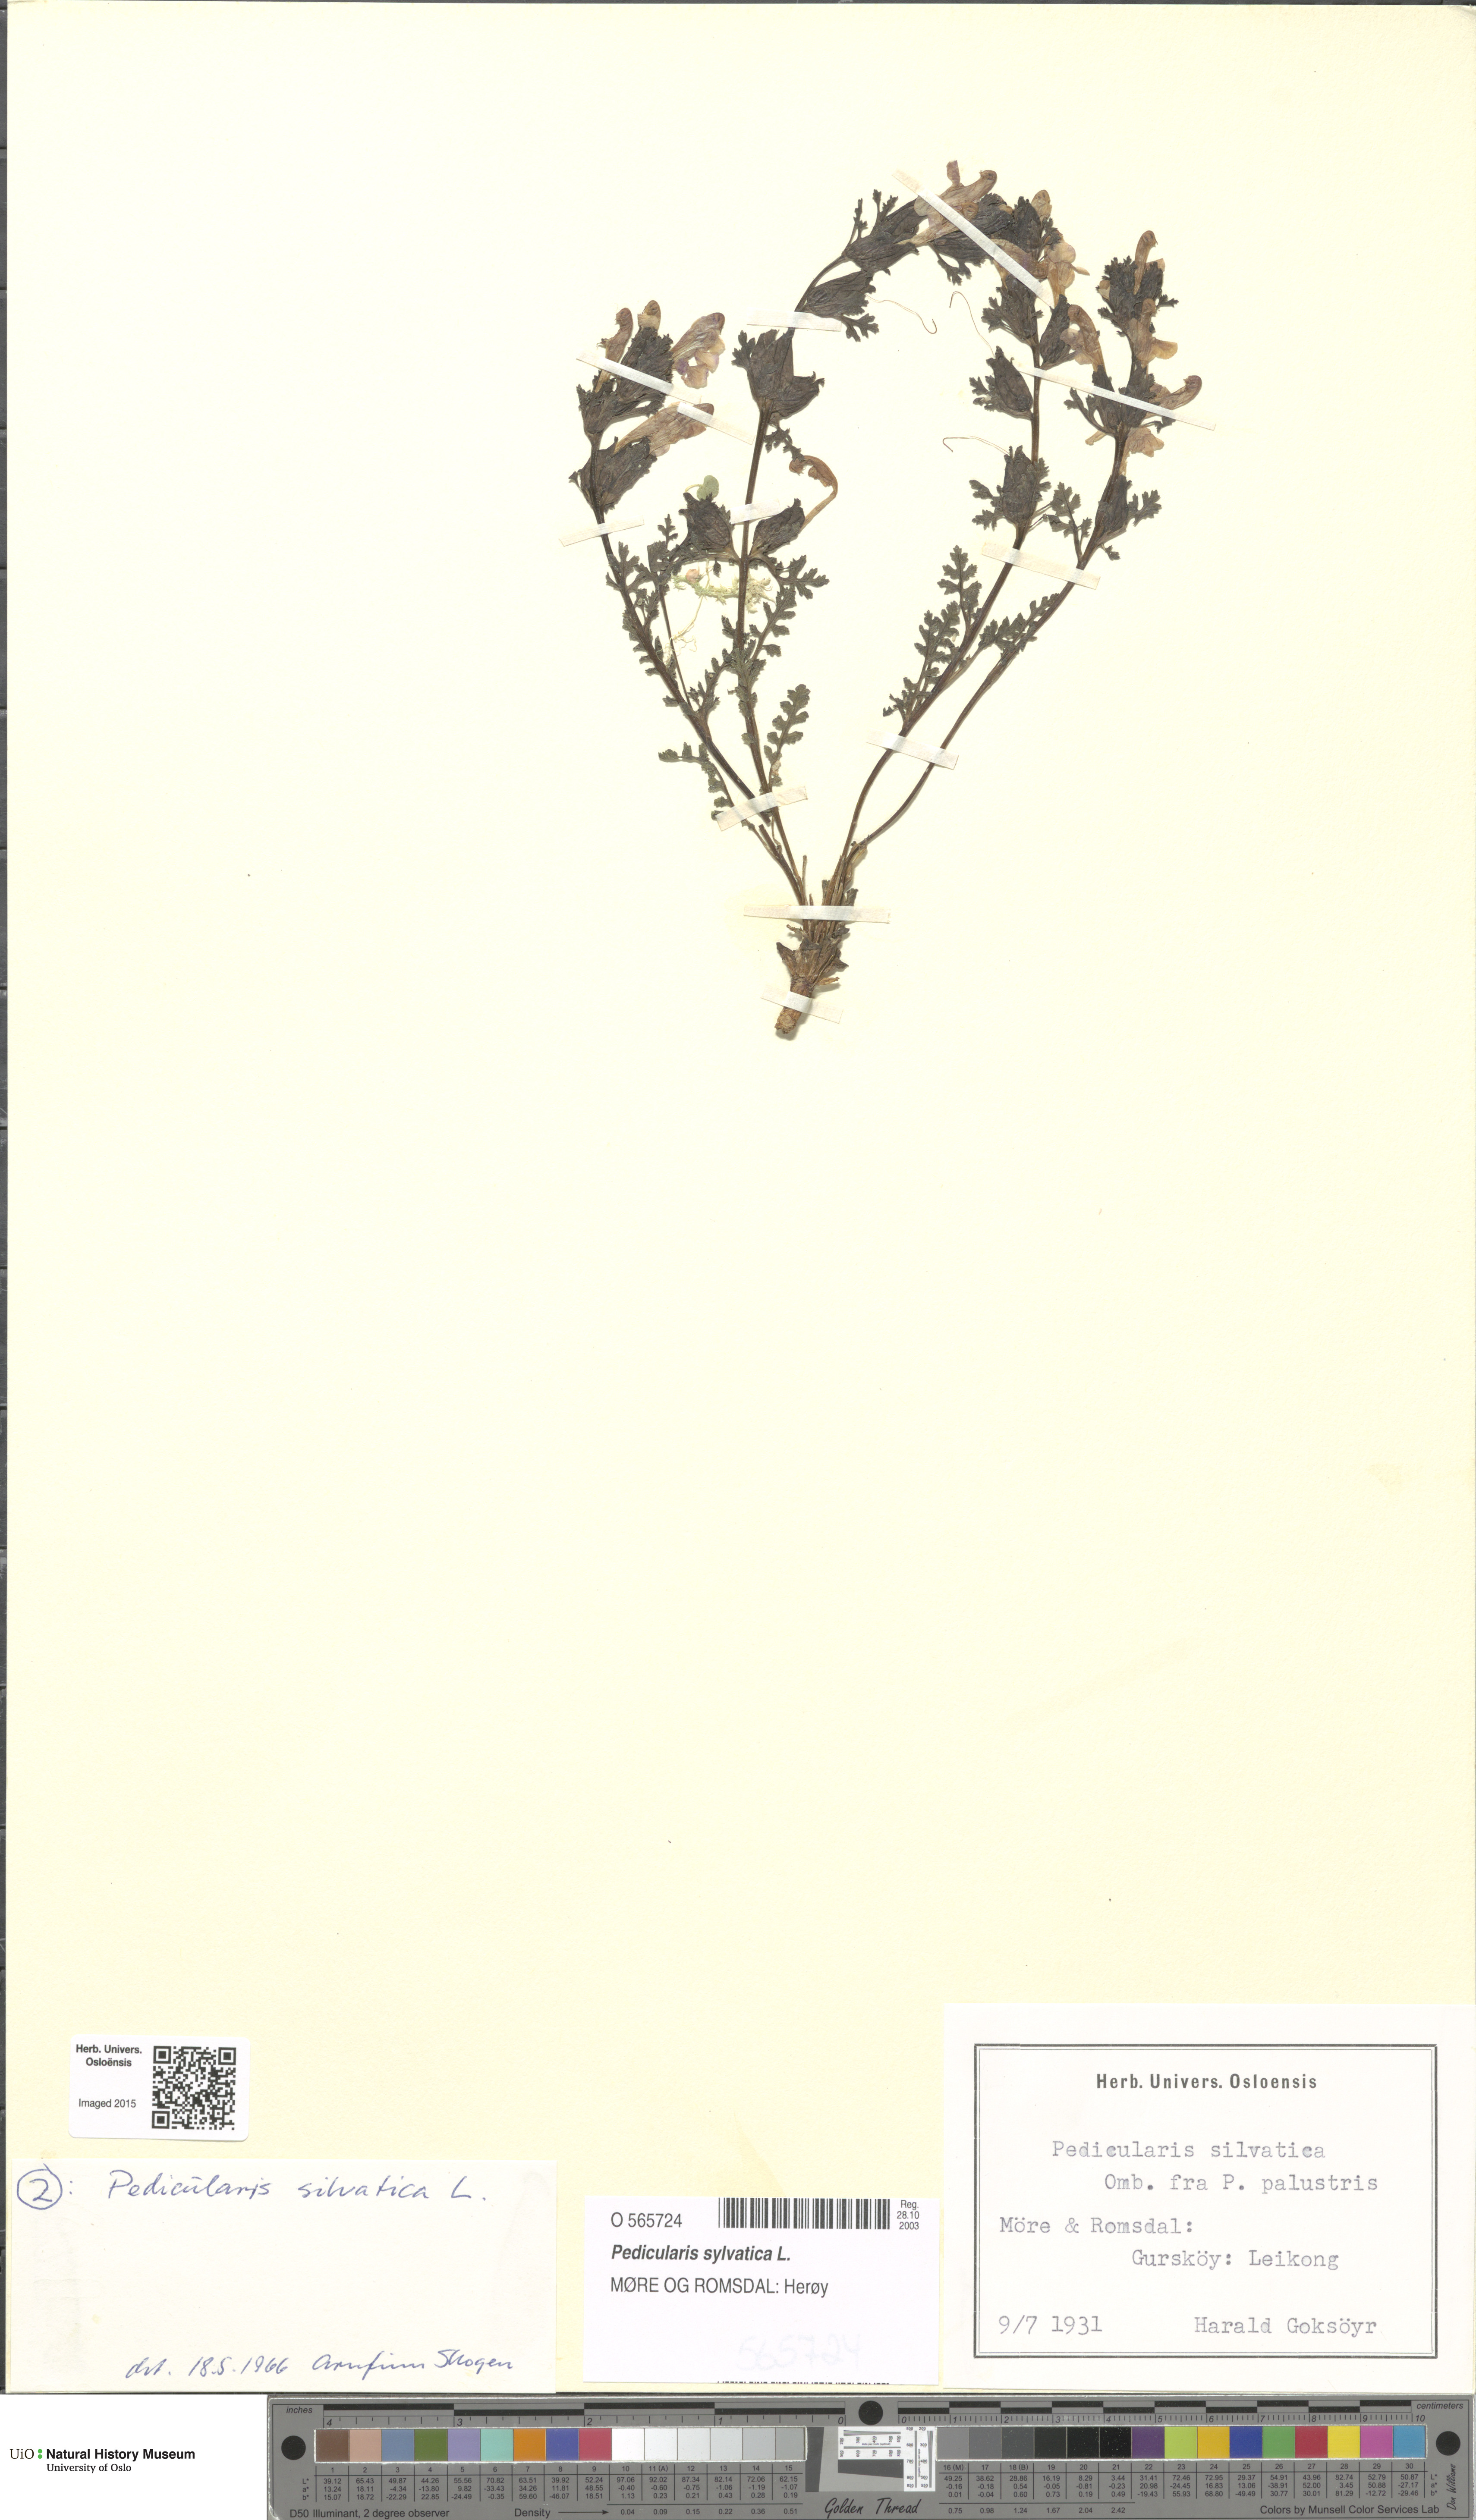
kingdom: Plantae
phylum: Tracheophyta
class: Magnoliopsida
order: Lamiales
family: Orobanchaceae
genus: Pedicularis
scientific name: Pedicularis sylvatica
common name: Lousewort
